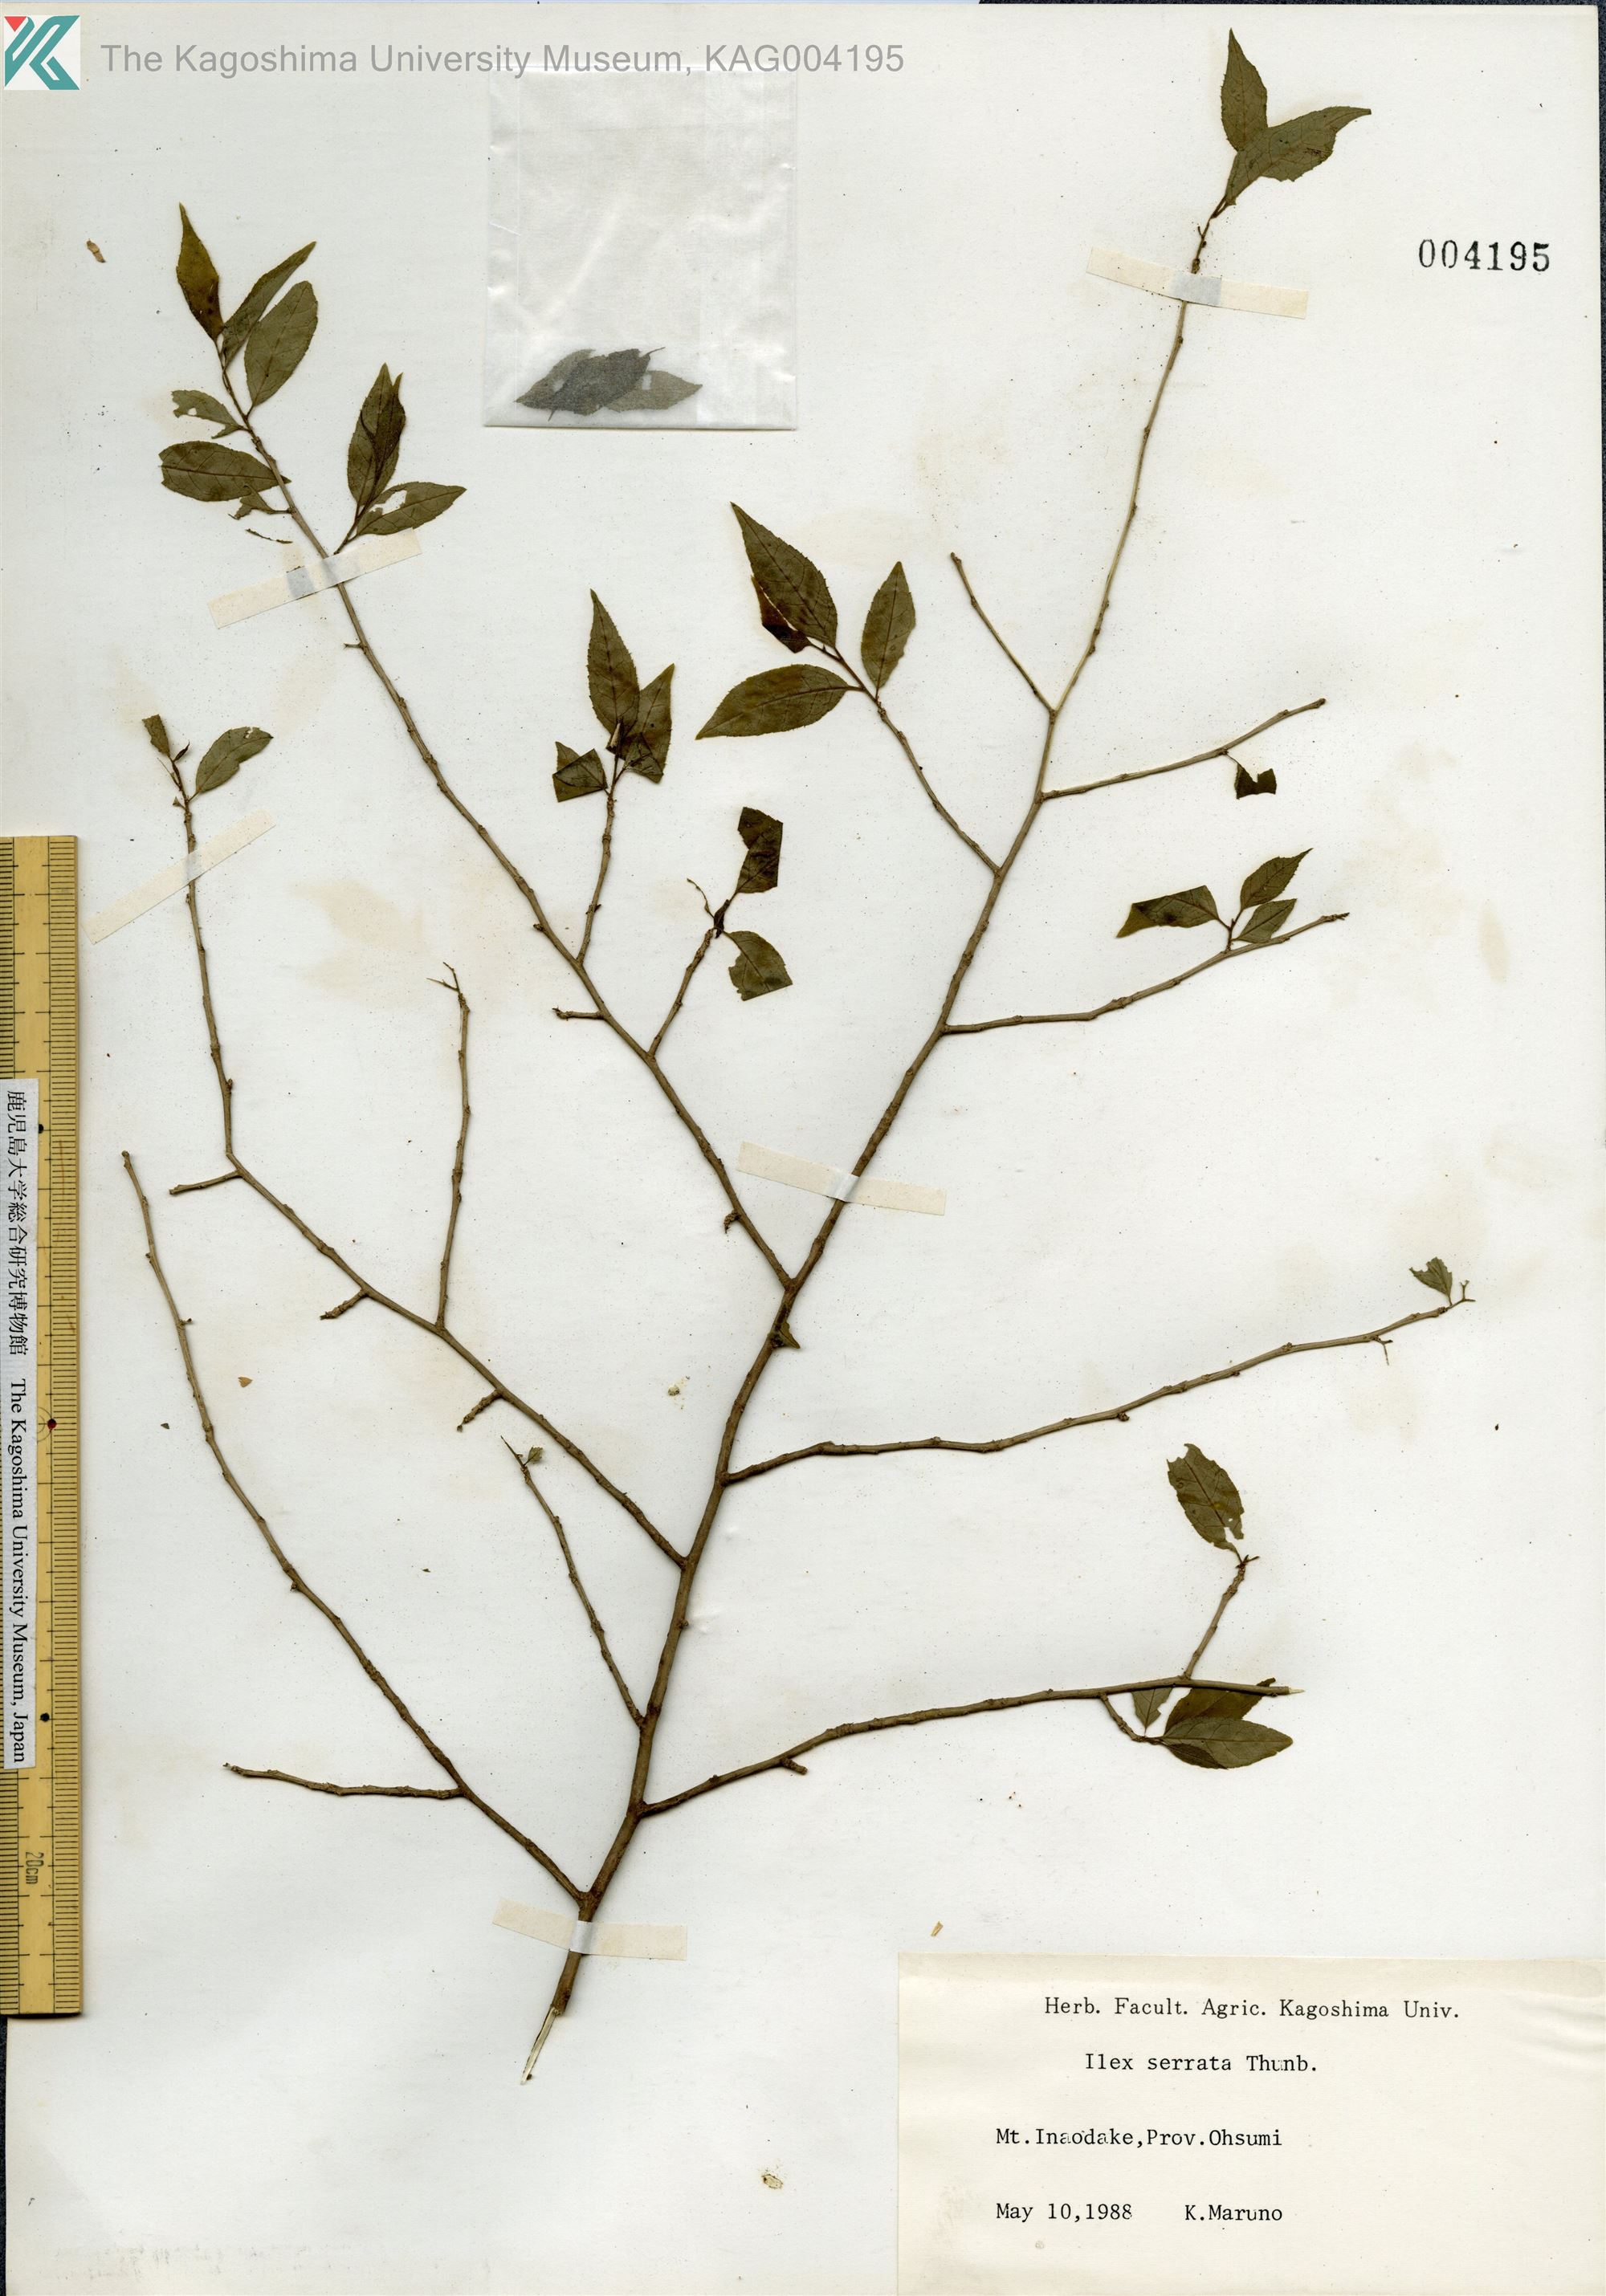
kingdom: Plantae
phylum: Tracheophyta
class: Magnoliopsida
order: Aquifoliales
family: Aquifoliaceae
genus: Ilex
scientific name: Ilex serrata
